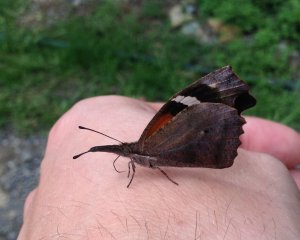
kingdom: Animalia
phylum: Arthropoda
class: Insecta
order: Lepidoptera
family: Nymphalidae
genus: Libytheana
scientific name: Libytheana carinenta
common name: American Snout
